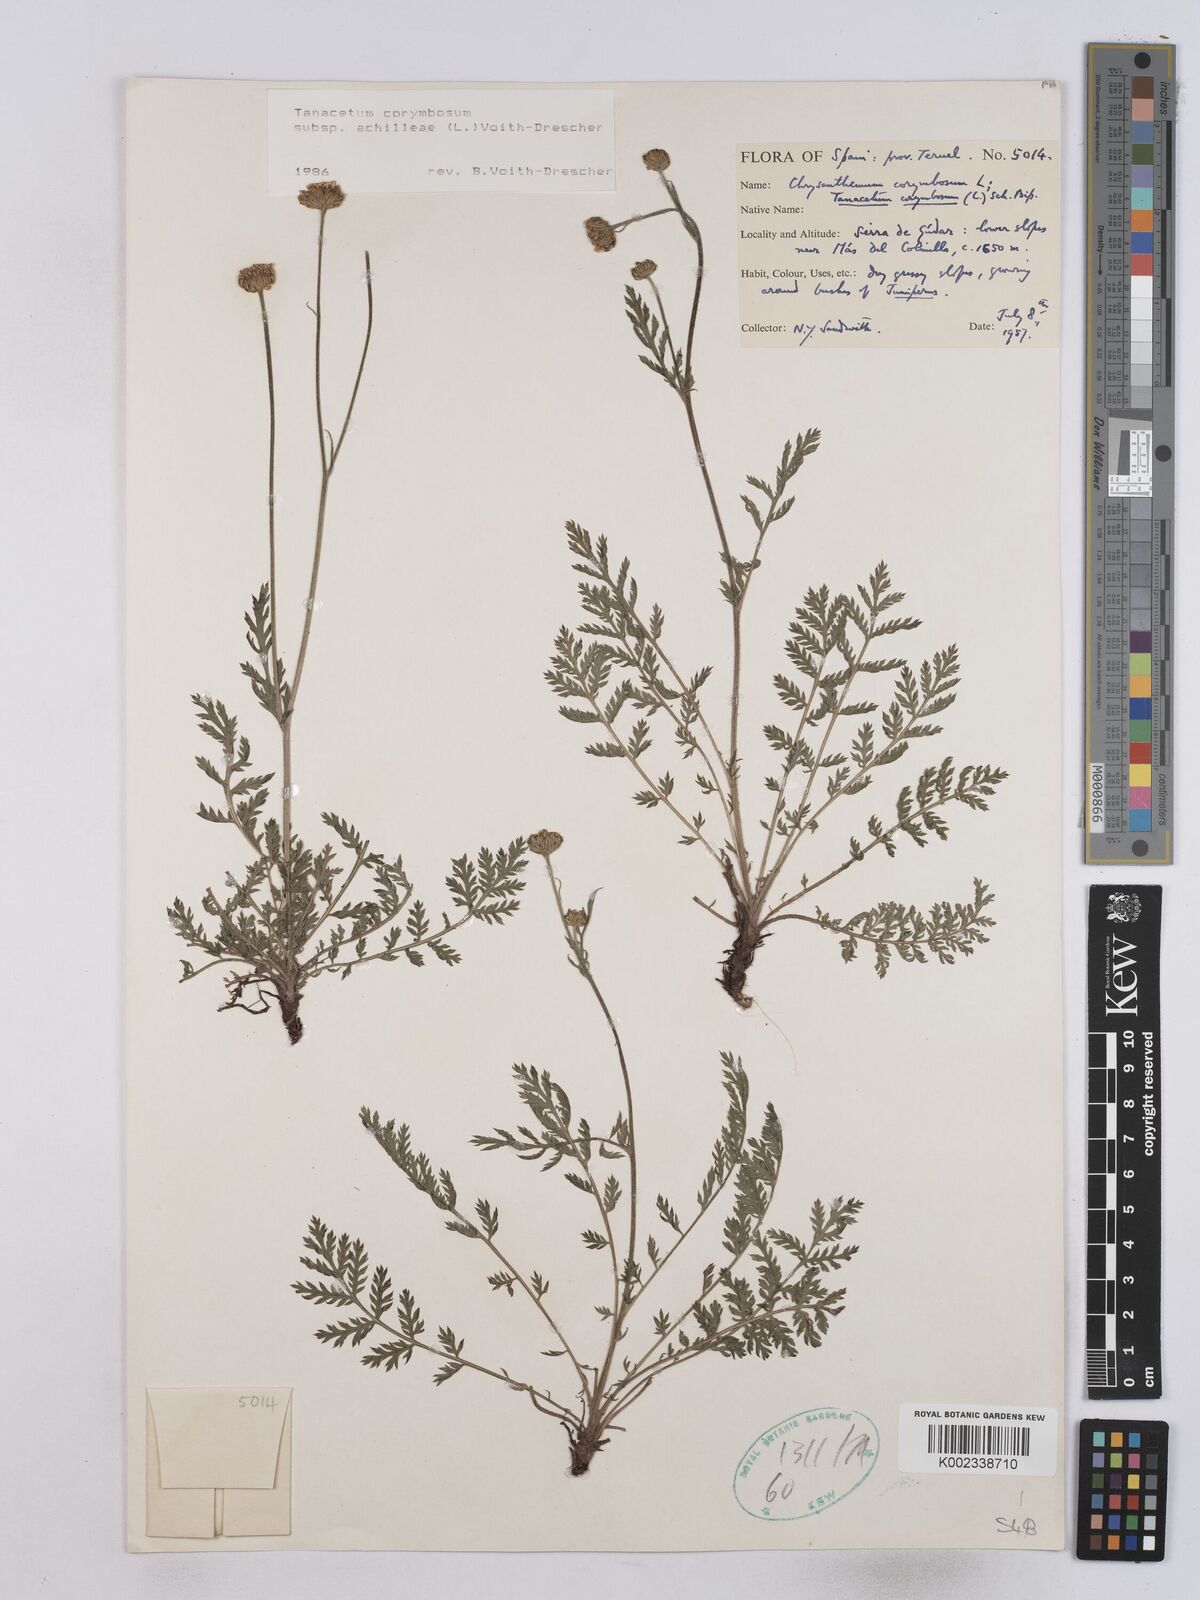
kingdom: Plantae
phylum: Tracheophyta
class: Magnoliopsida
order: Asterales
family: Asteraceae
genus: Tanacetum
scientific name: Tanacetum corymbosum
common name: Scentless feverfew
